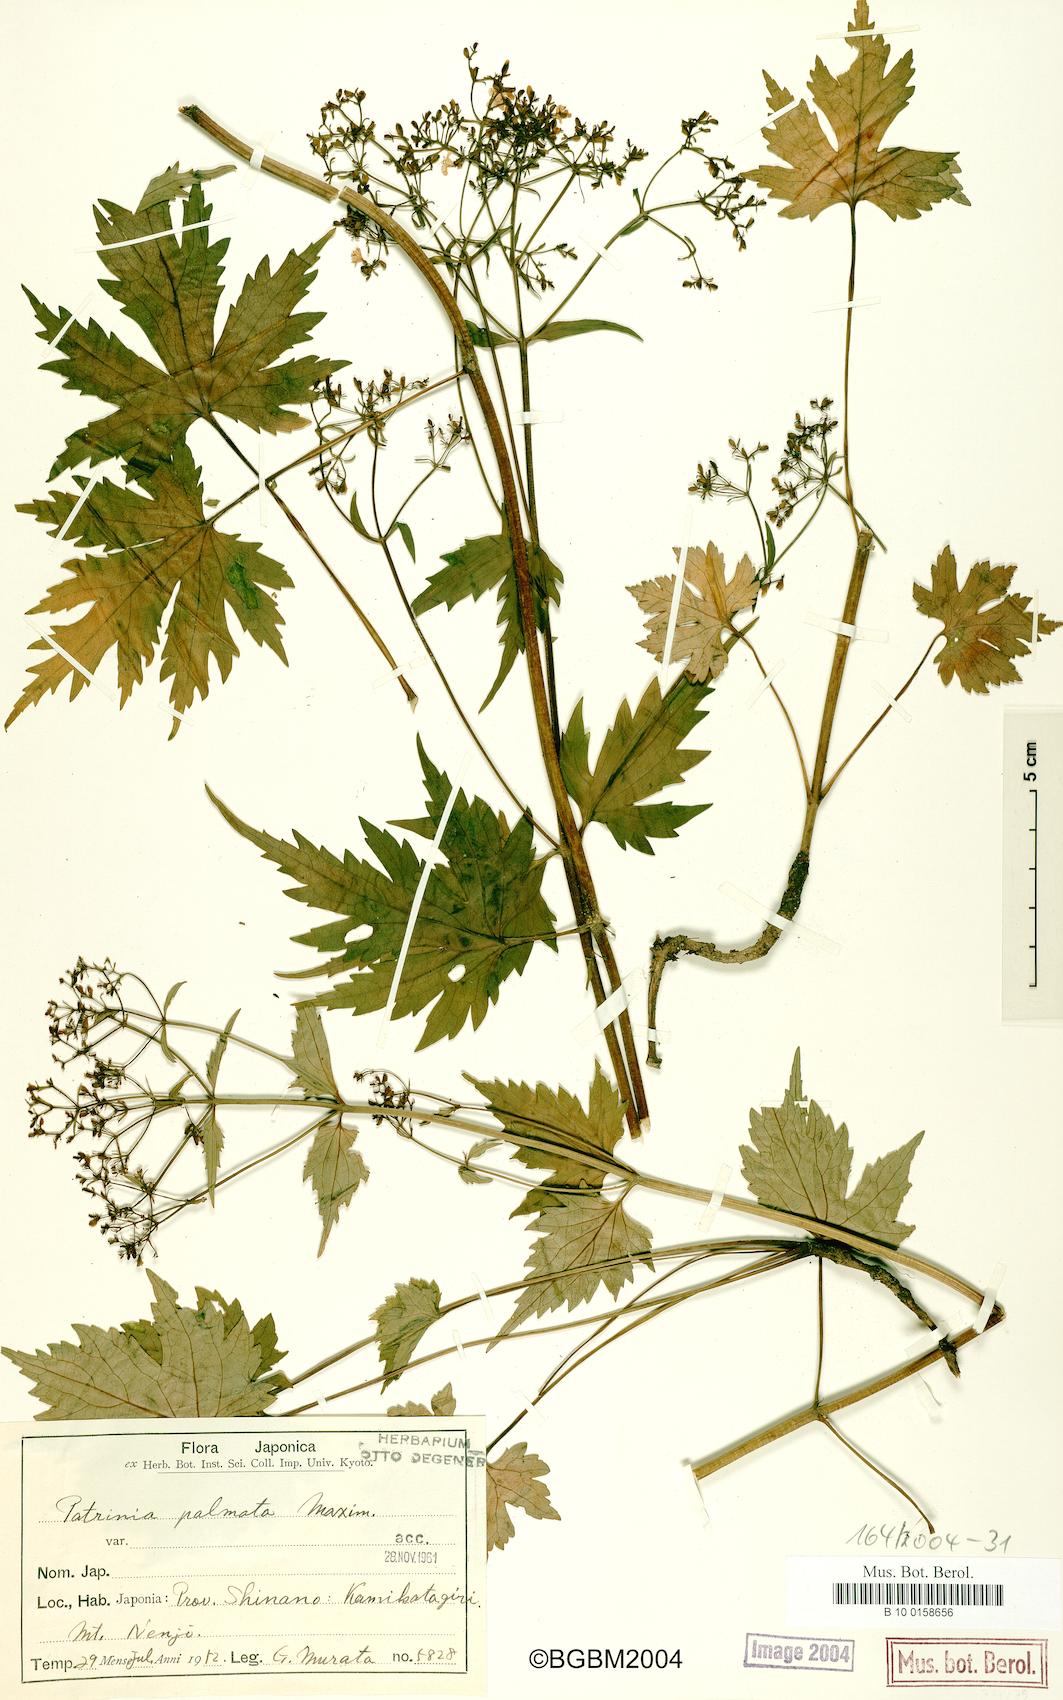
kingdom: Plantae
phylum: Tracheophyta
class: Magnoliopsida
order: Dipsacales
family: Caprifoliaceae
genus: Patrinia
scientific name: Patrinia triloba
